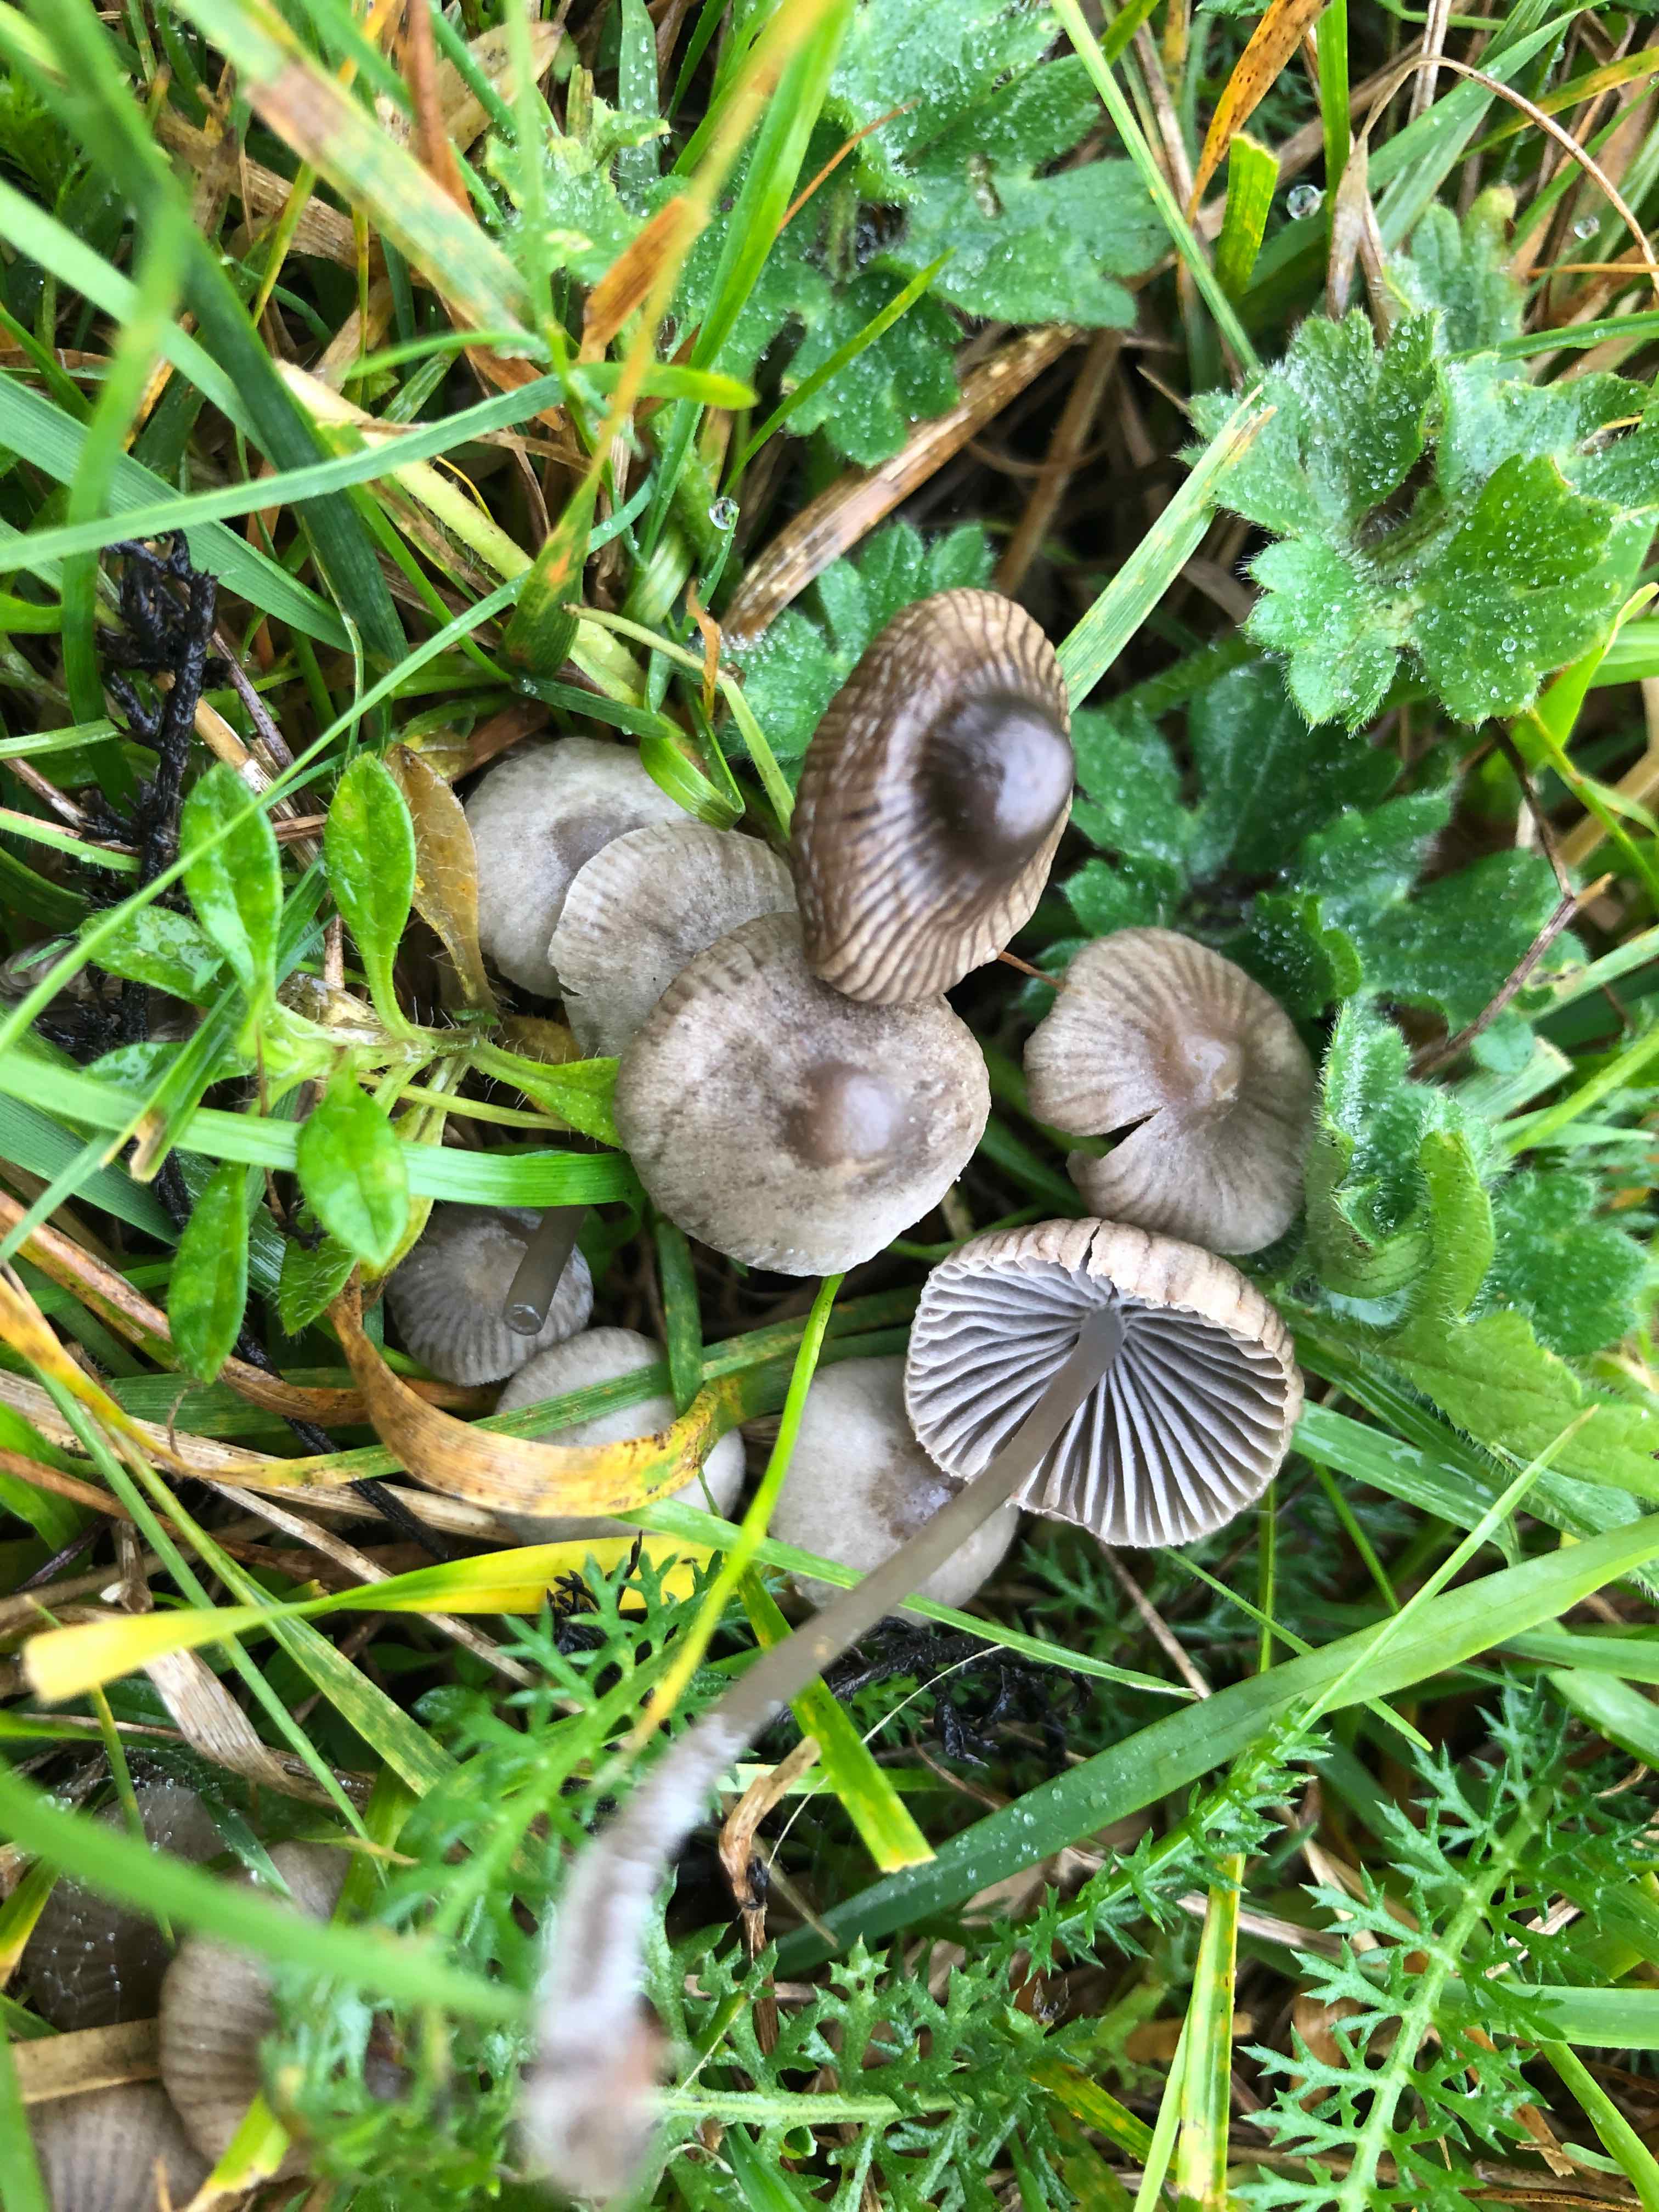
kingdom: Fungi
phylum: Basidiomycota
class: Agaricomycetes
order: Agaricales
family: Mycenaceae
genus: Mycena
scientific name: Mycena aetites
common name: plæne-huesvamp
